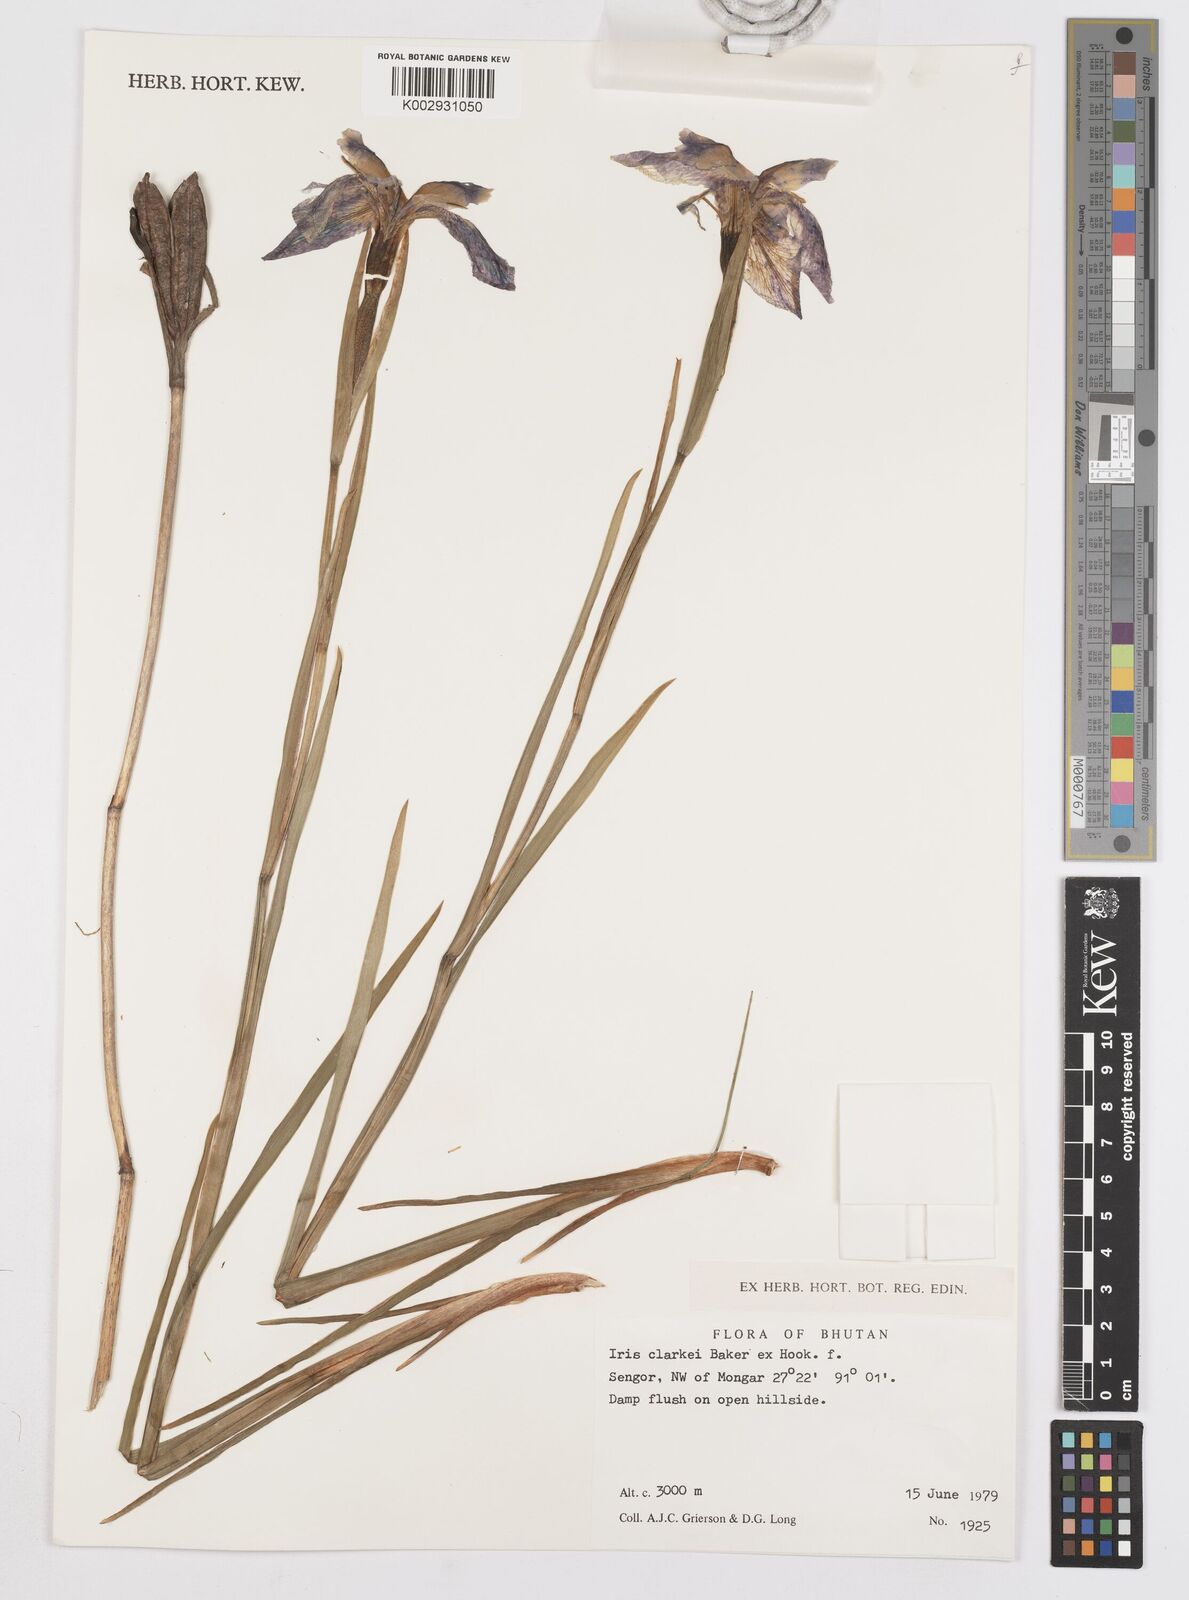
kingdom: Plantae
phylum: Tracheophyta
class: Liliopsida
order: Asparagales
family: Iridaceae
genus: Iris
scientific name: Iris clarkei
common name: Tibet iris
